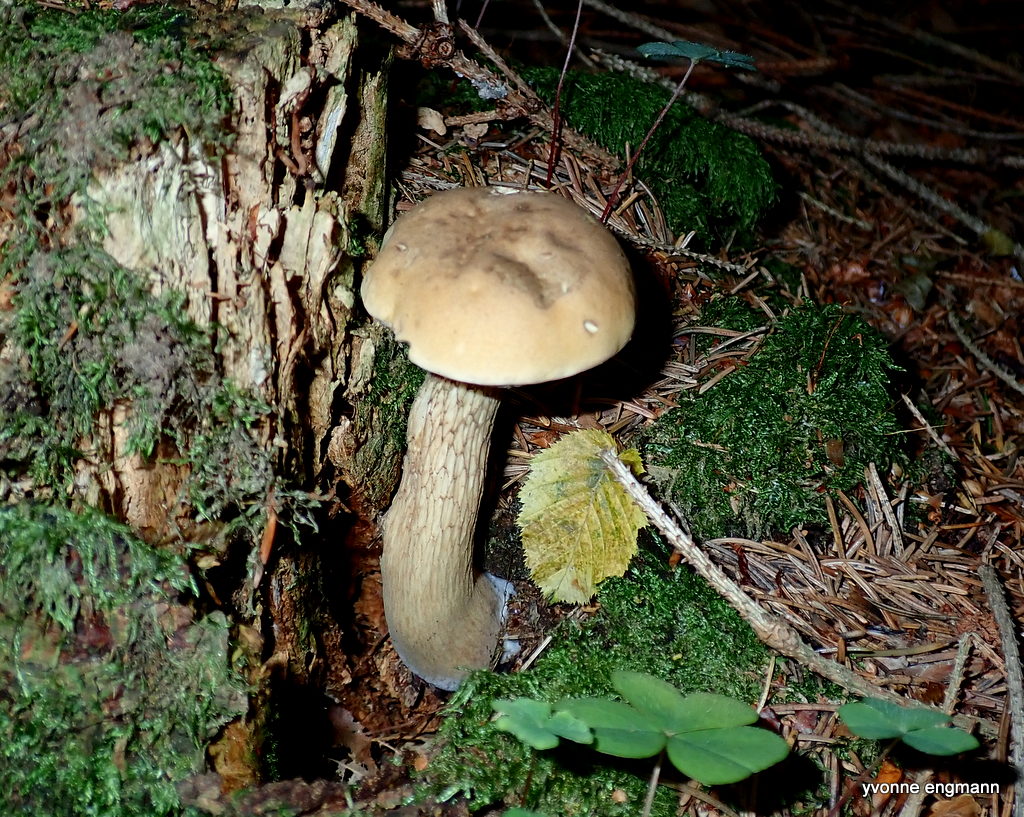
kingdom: Fungi
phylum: Basidiomycota
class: Agaricomycetes
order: Boletales
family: Boletaceae
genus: Tylopilus
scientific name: Tylopilus felleus
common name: galderørhat
